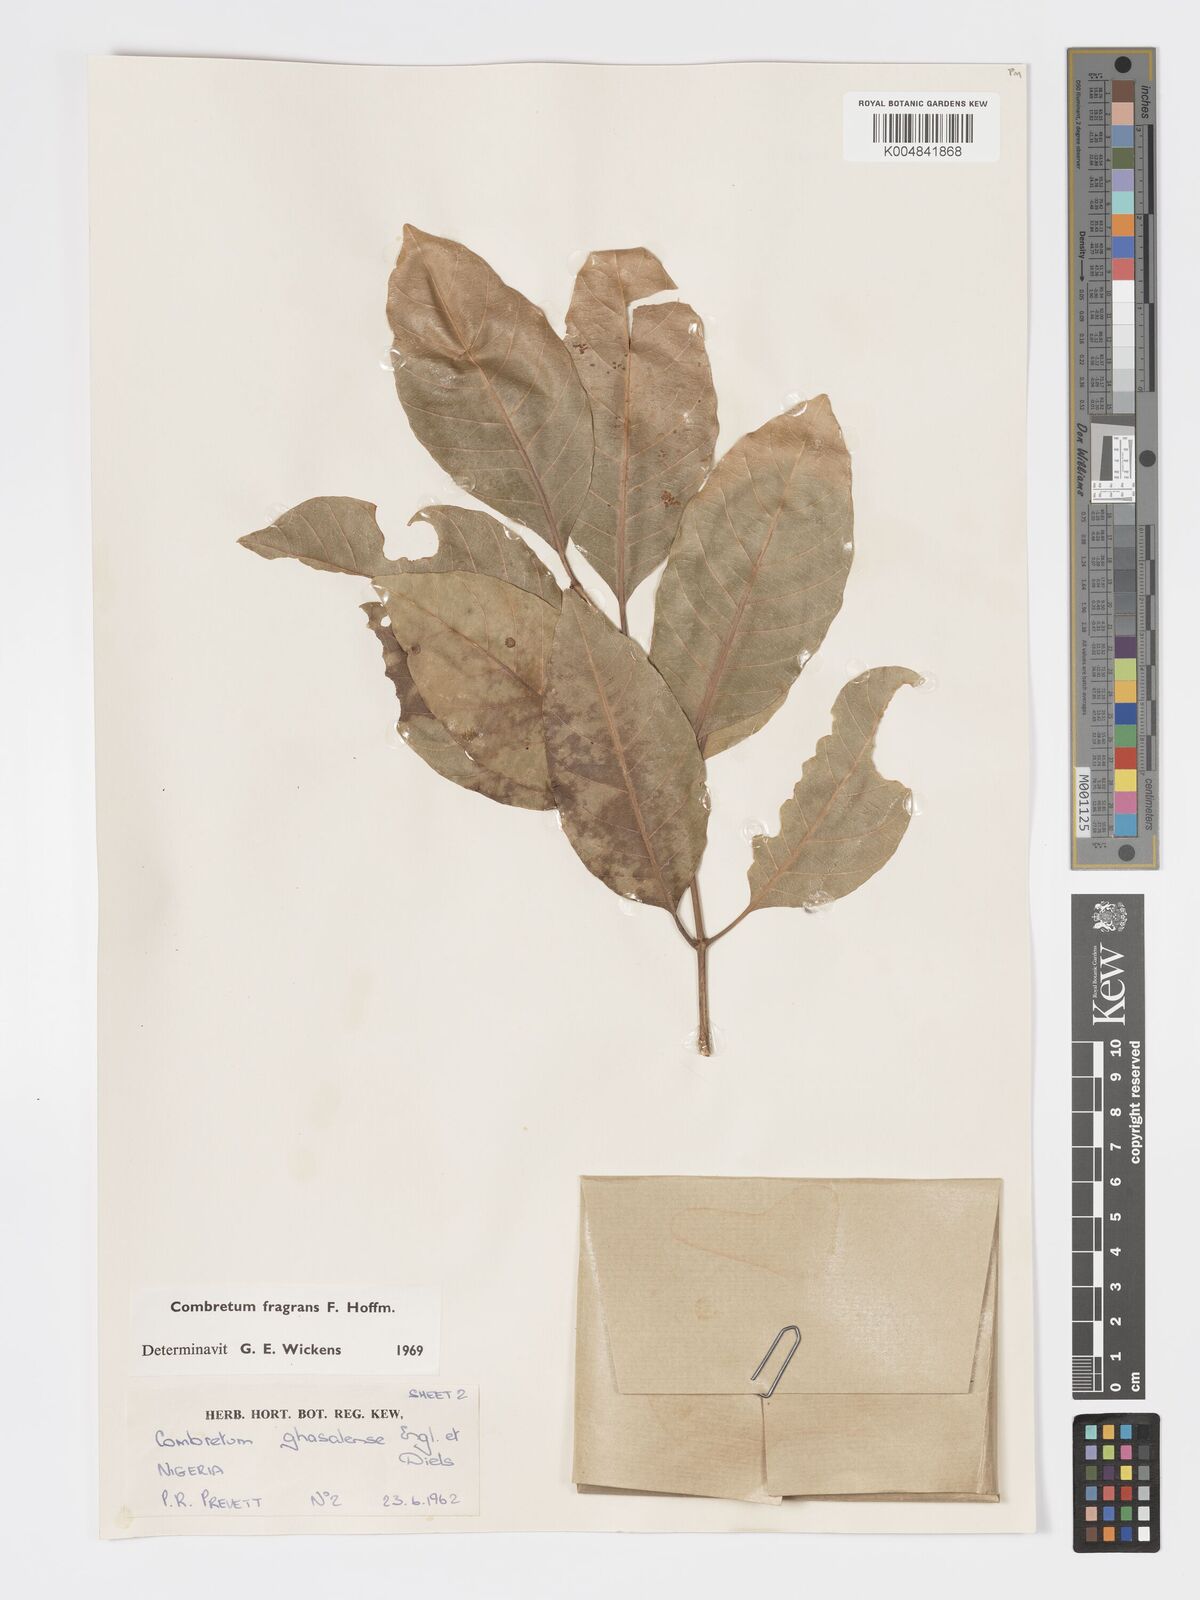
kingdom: Plantae
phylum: Tracheophyta
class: Magnoliopsida
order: Myrtales
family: Combretaceae
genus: Combretum
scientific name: Combretum adenogonium
